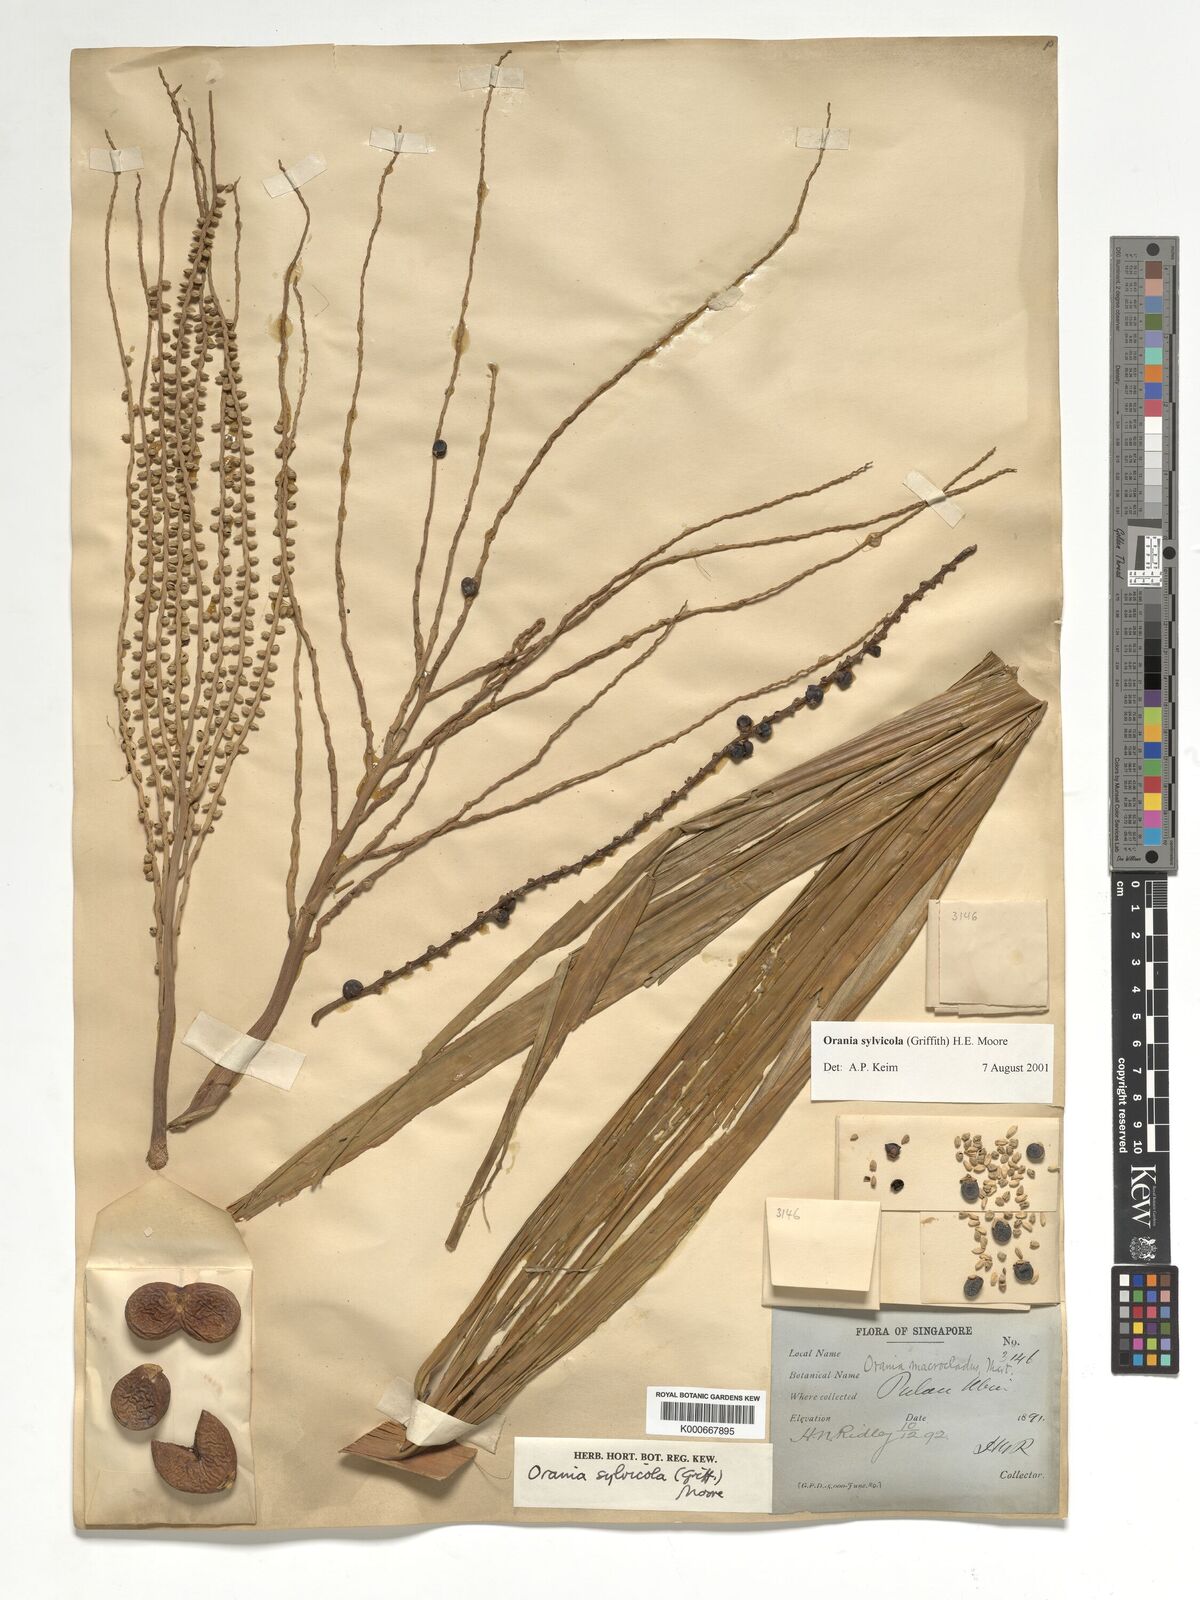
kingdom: Plantae
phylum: Tracheophyta
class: Liliopsida
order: Arecales
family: Arecaceae
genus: Orania
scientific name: Orania sylvicola
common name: Forest palm
